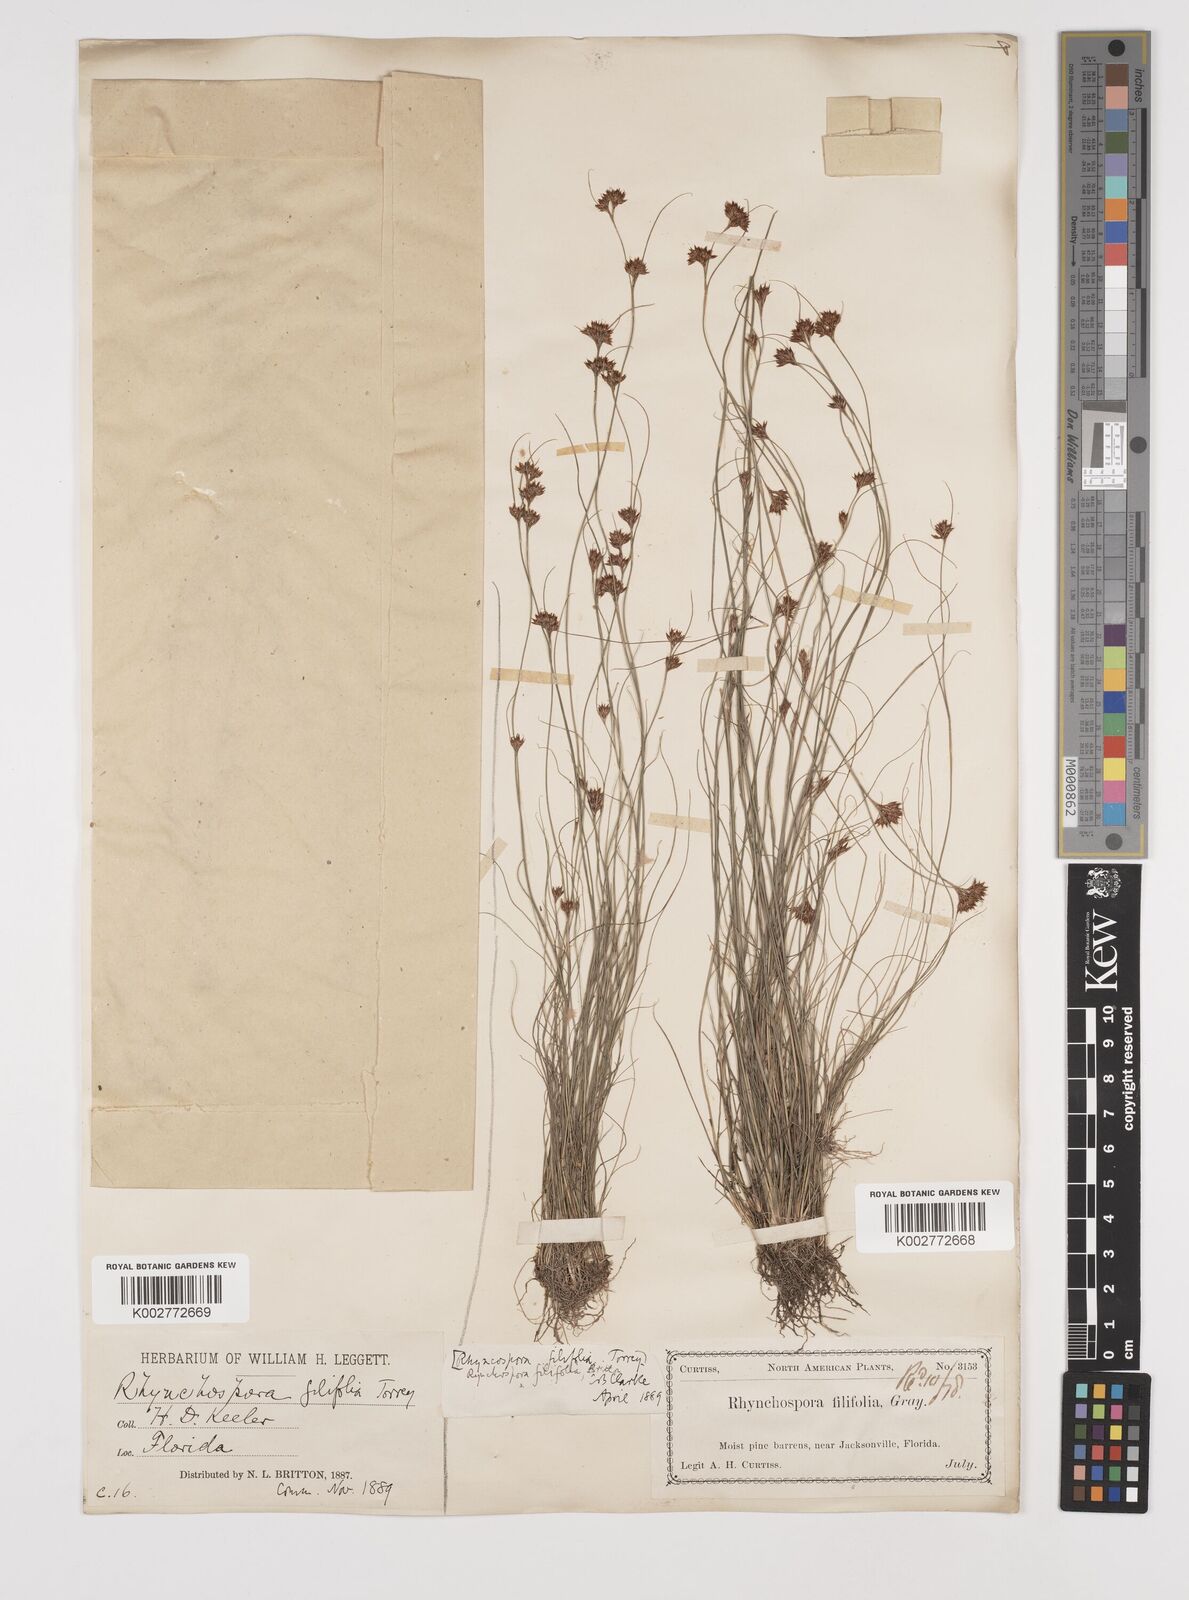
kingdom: Plantae
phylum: Tracheophyta
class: Liliopsida
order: Poales
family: Cyperaceae
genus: Rhynchospora
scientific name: Rhynchospora filifolia
